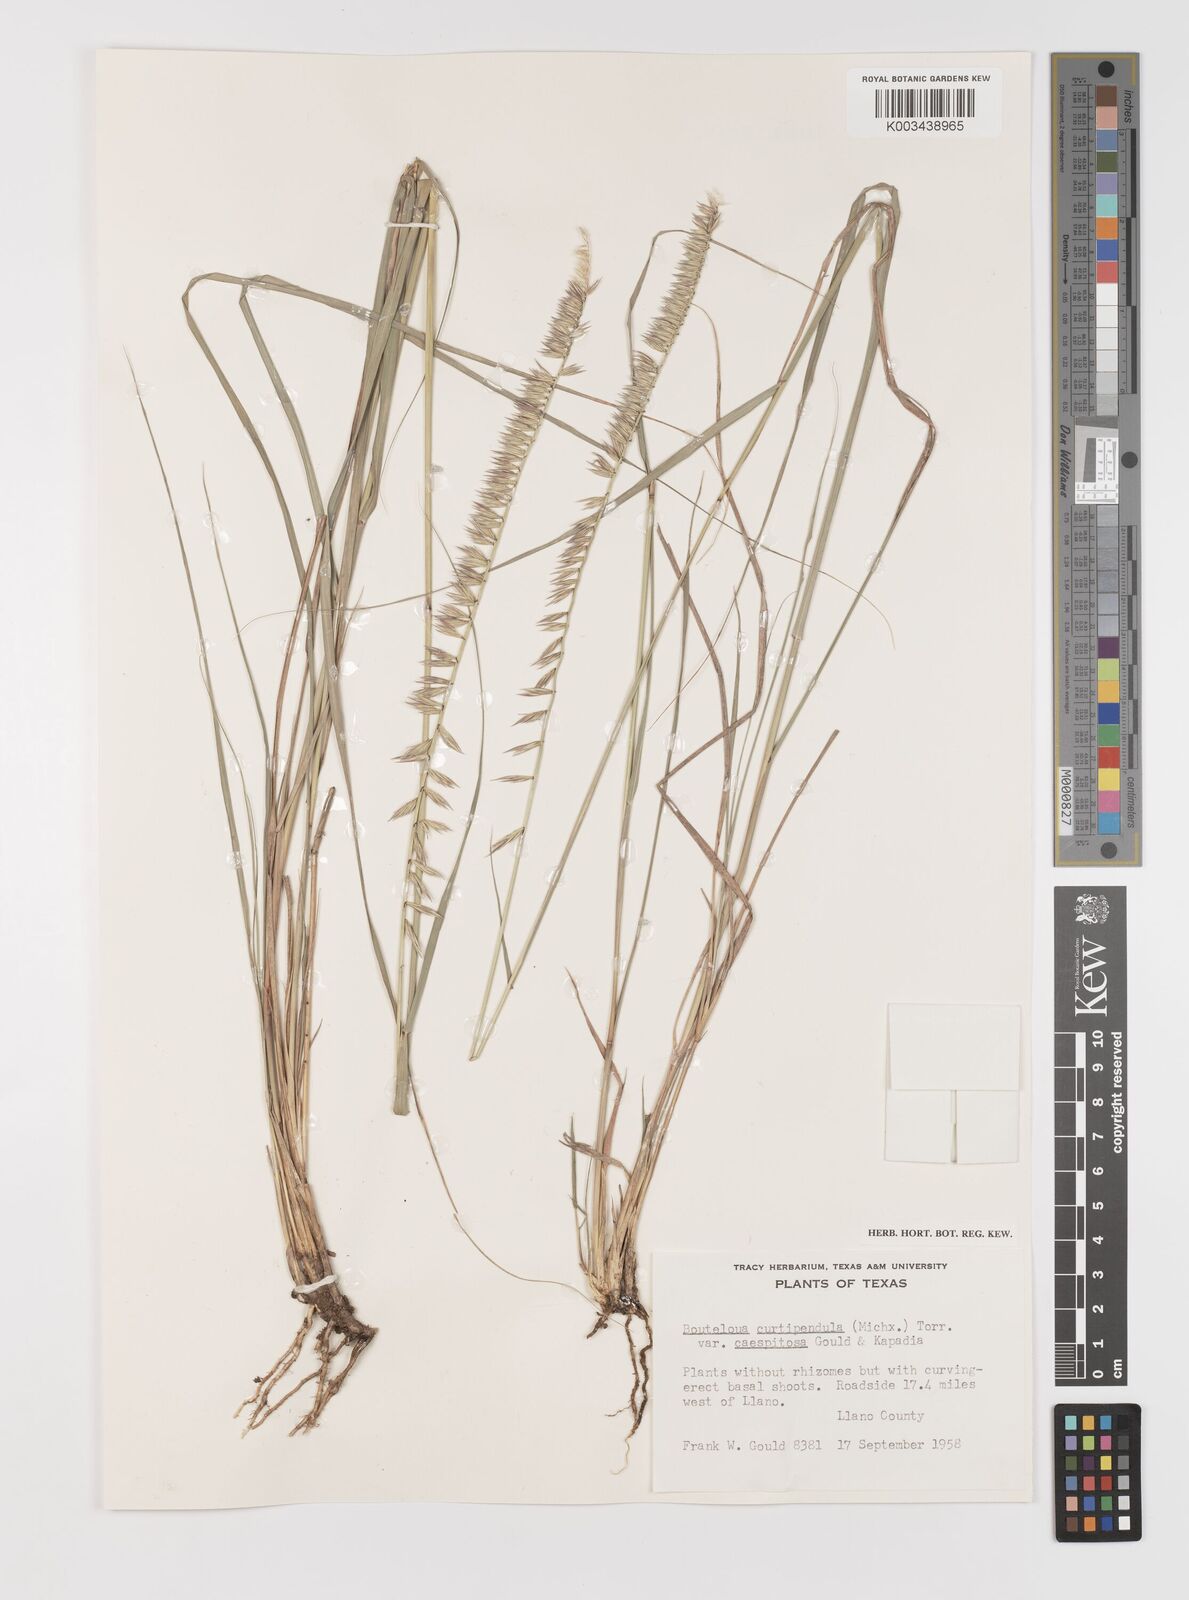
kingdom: Plantae
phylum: Tracheophyta
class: Liliopsida
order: Poales
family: Poaceae
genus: Bouteloua
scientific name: Bouteloua curtipendula
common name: Side-oats grama
